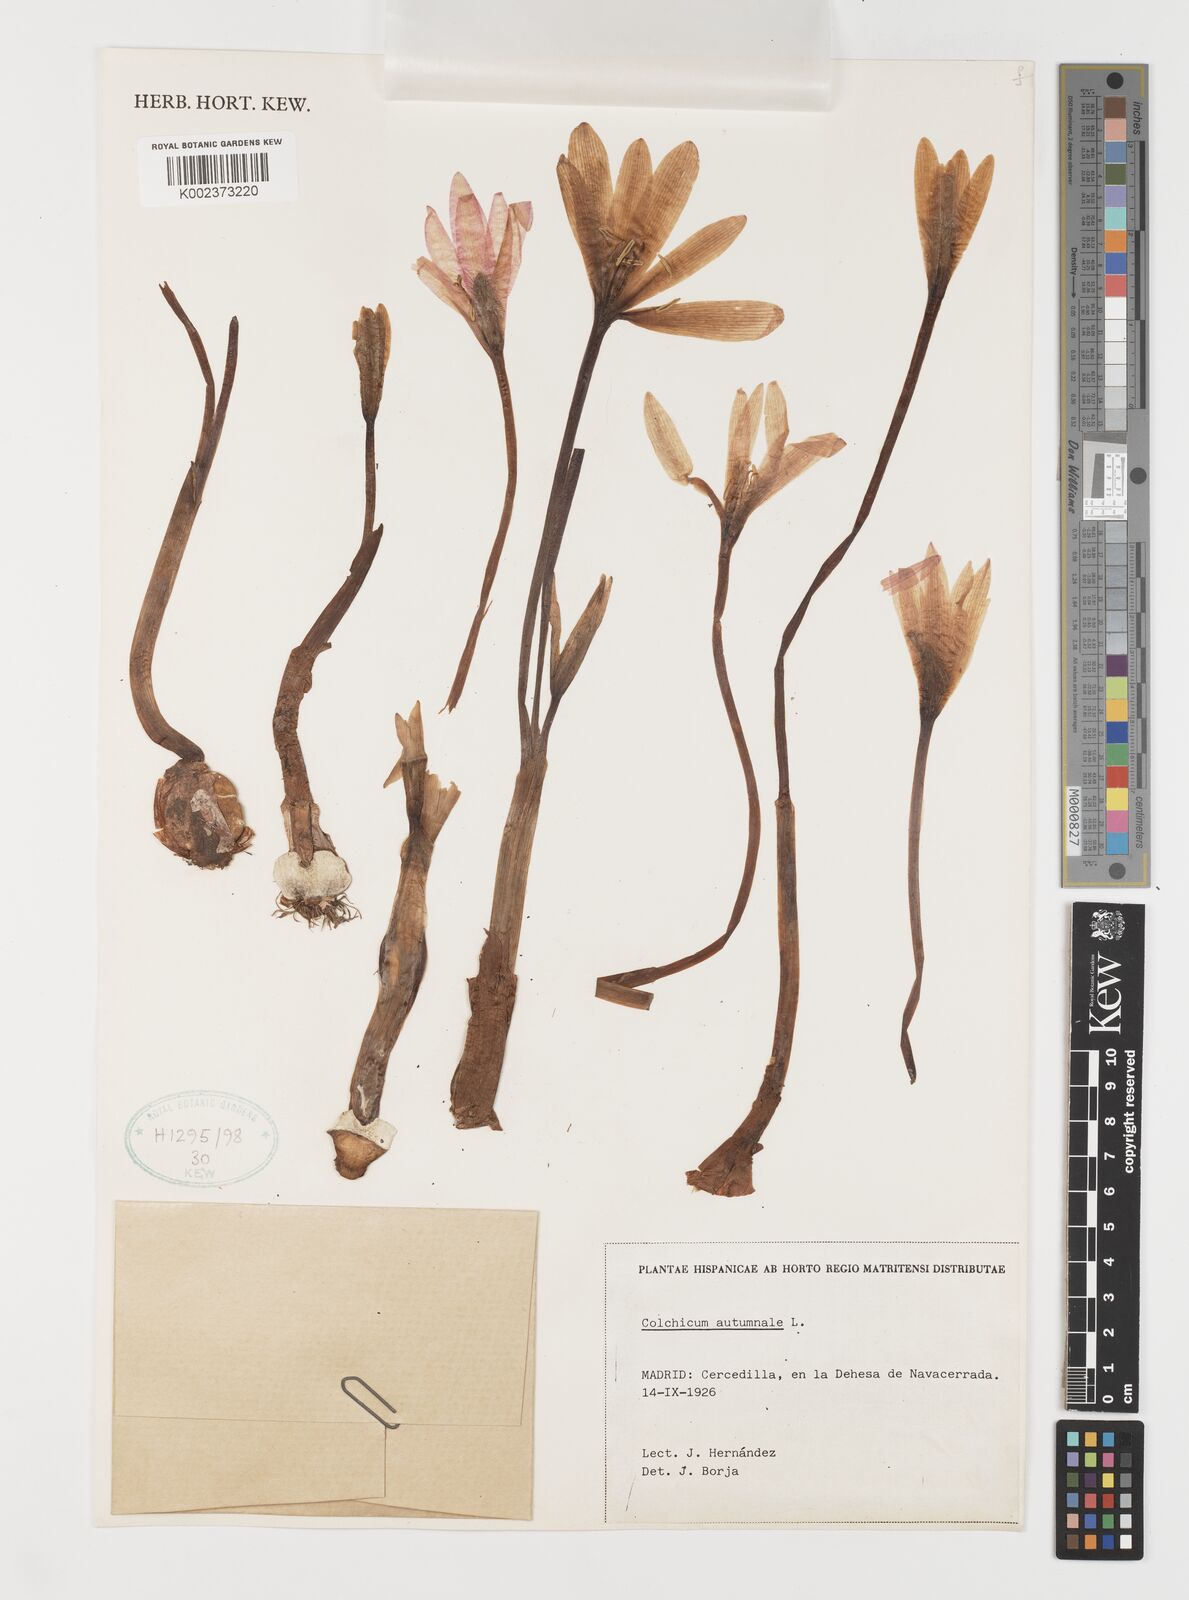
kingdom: Plantae
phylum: Tracheophyta
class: Liliopsida
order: Liliales
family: Colchicaceae
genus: Colchicum
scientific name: Colchicum autumnale
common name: Autumn crocus
